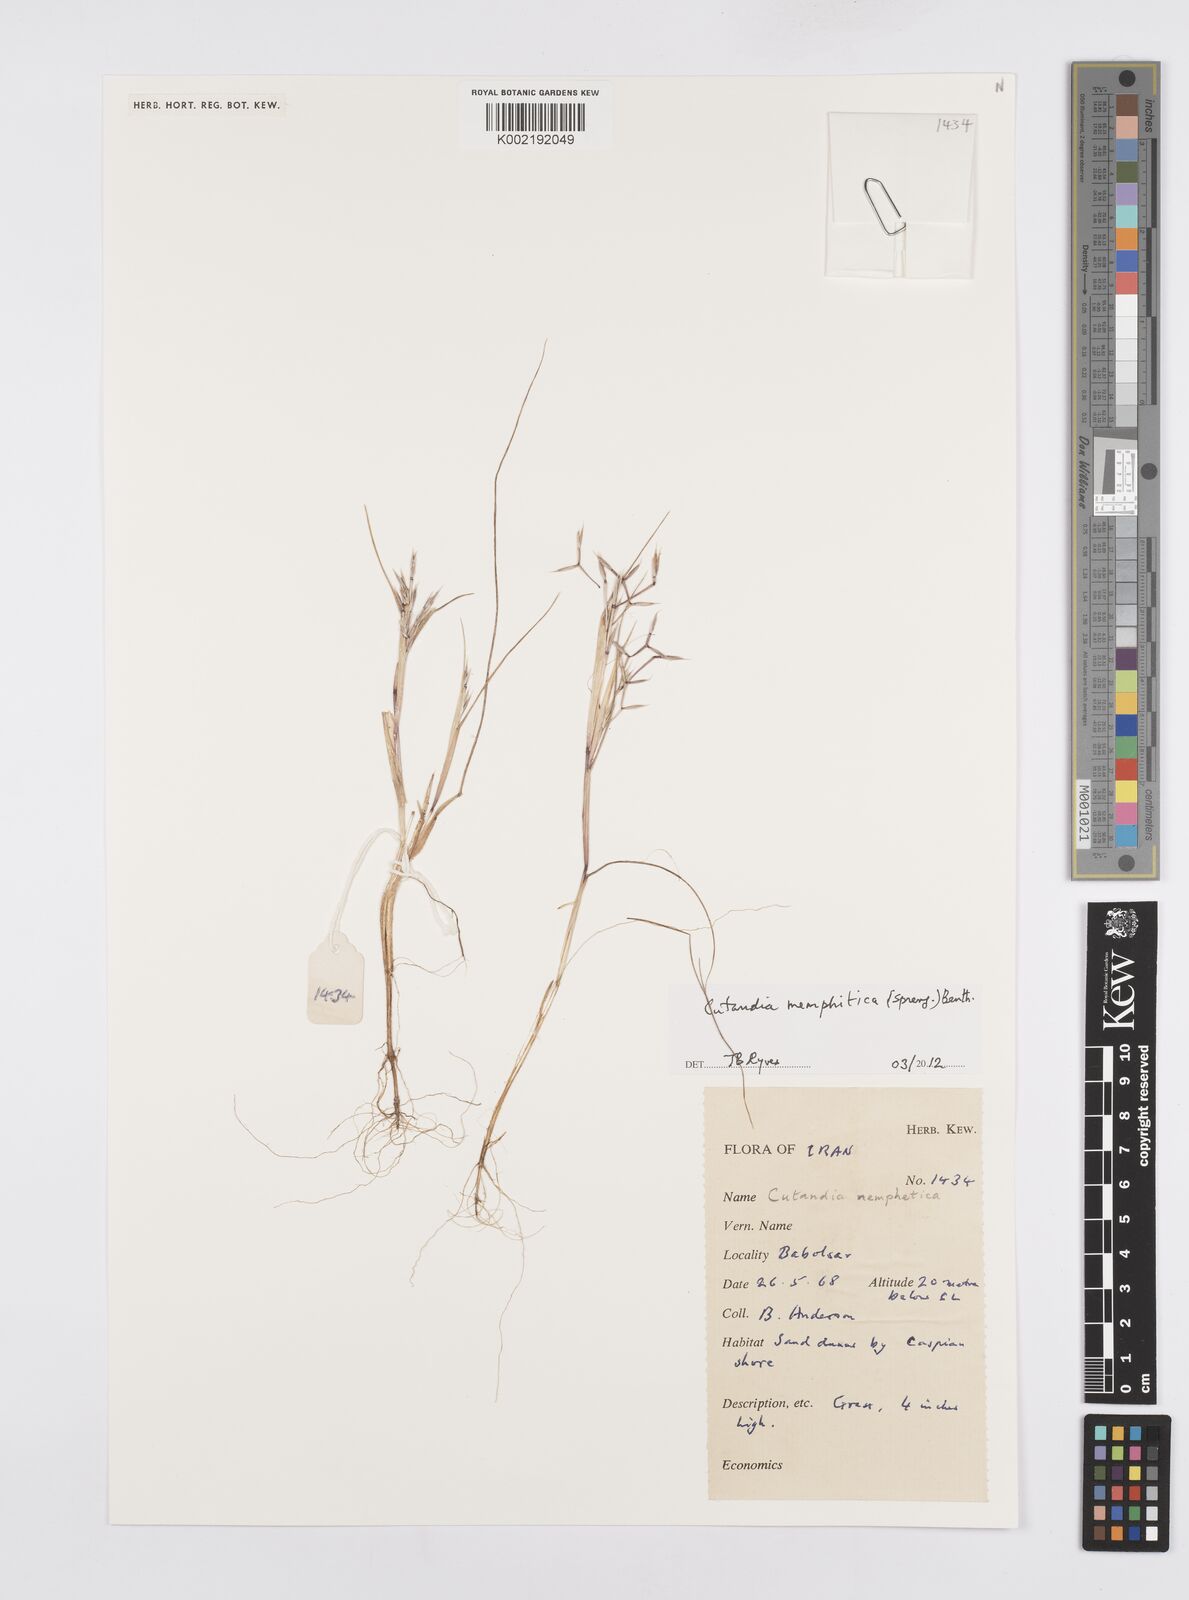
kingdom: Plantae
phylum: Tracheophyta
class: Liliopsida
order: Poales
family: Poaceae
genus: Cutandia
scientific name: Cutandia memphitica
